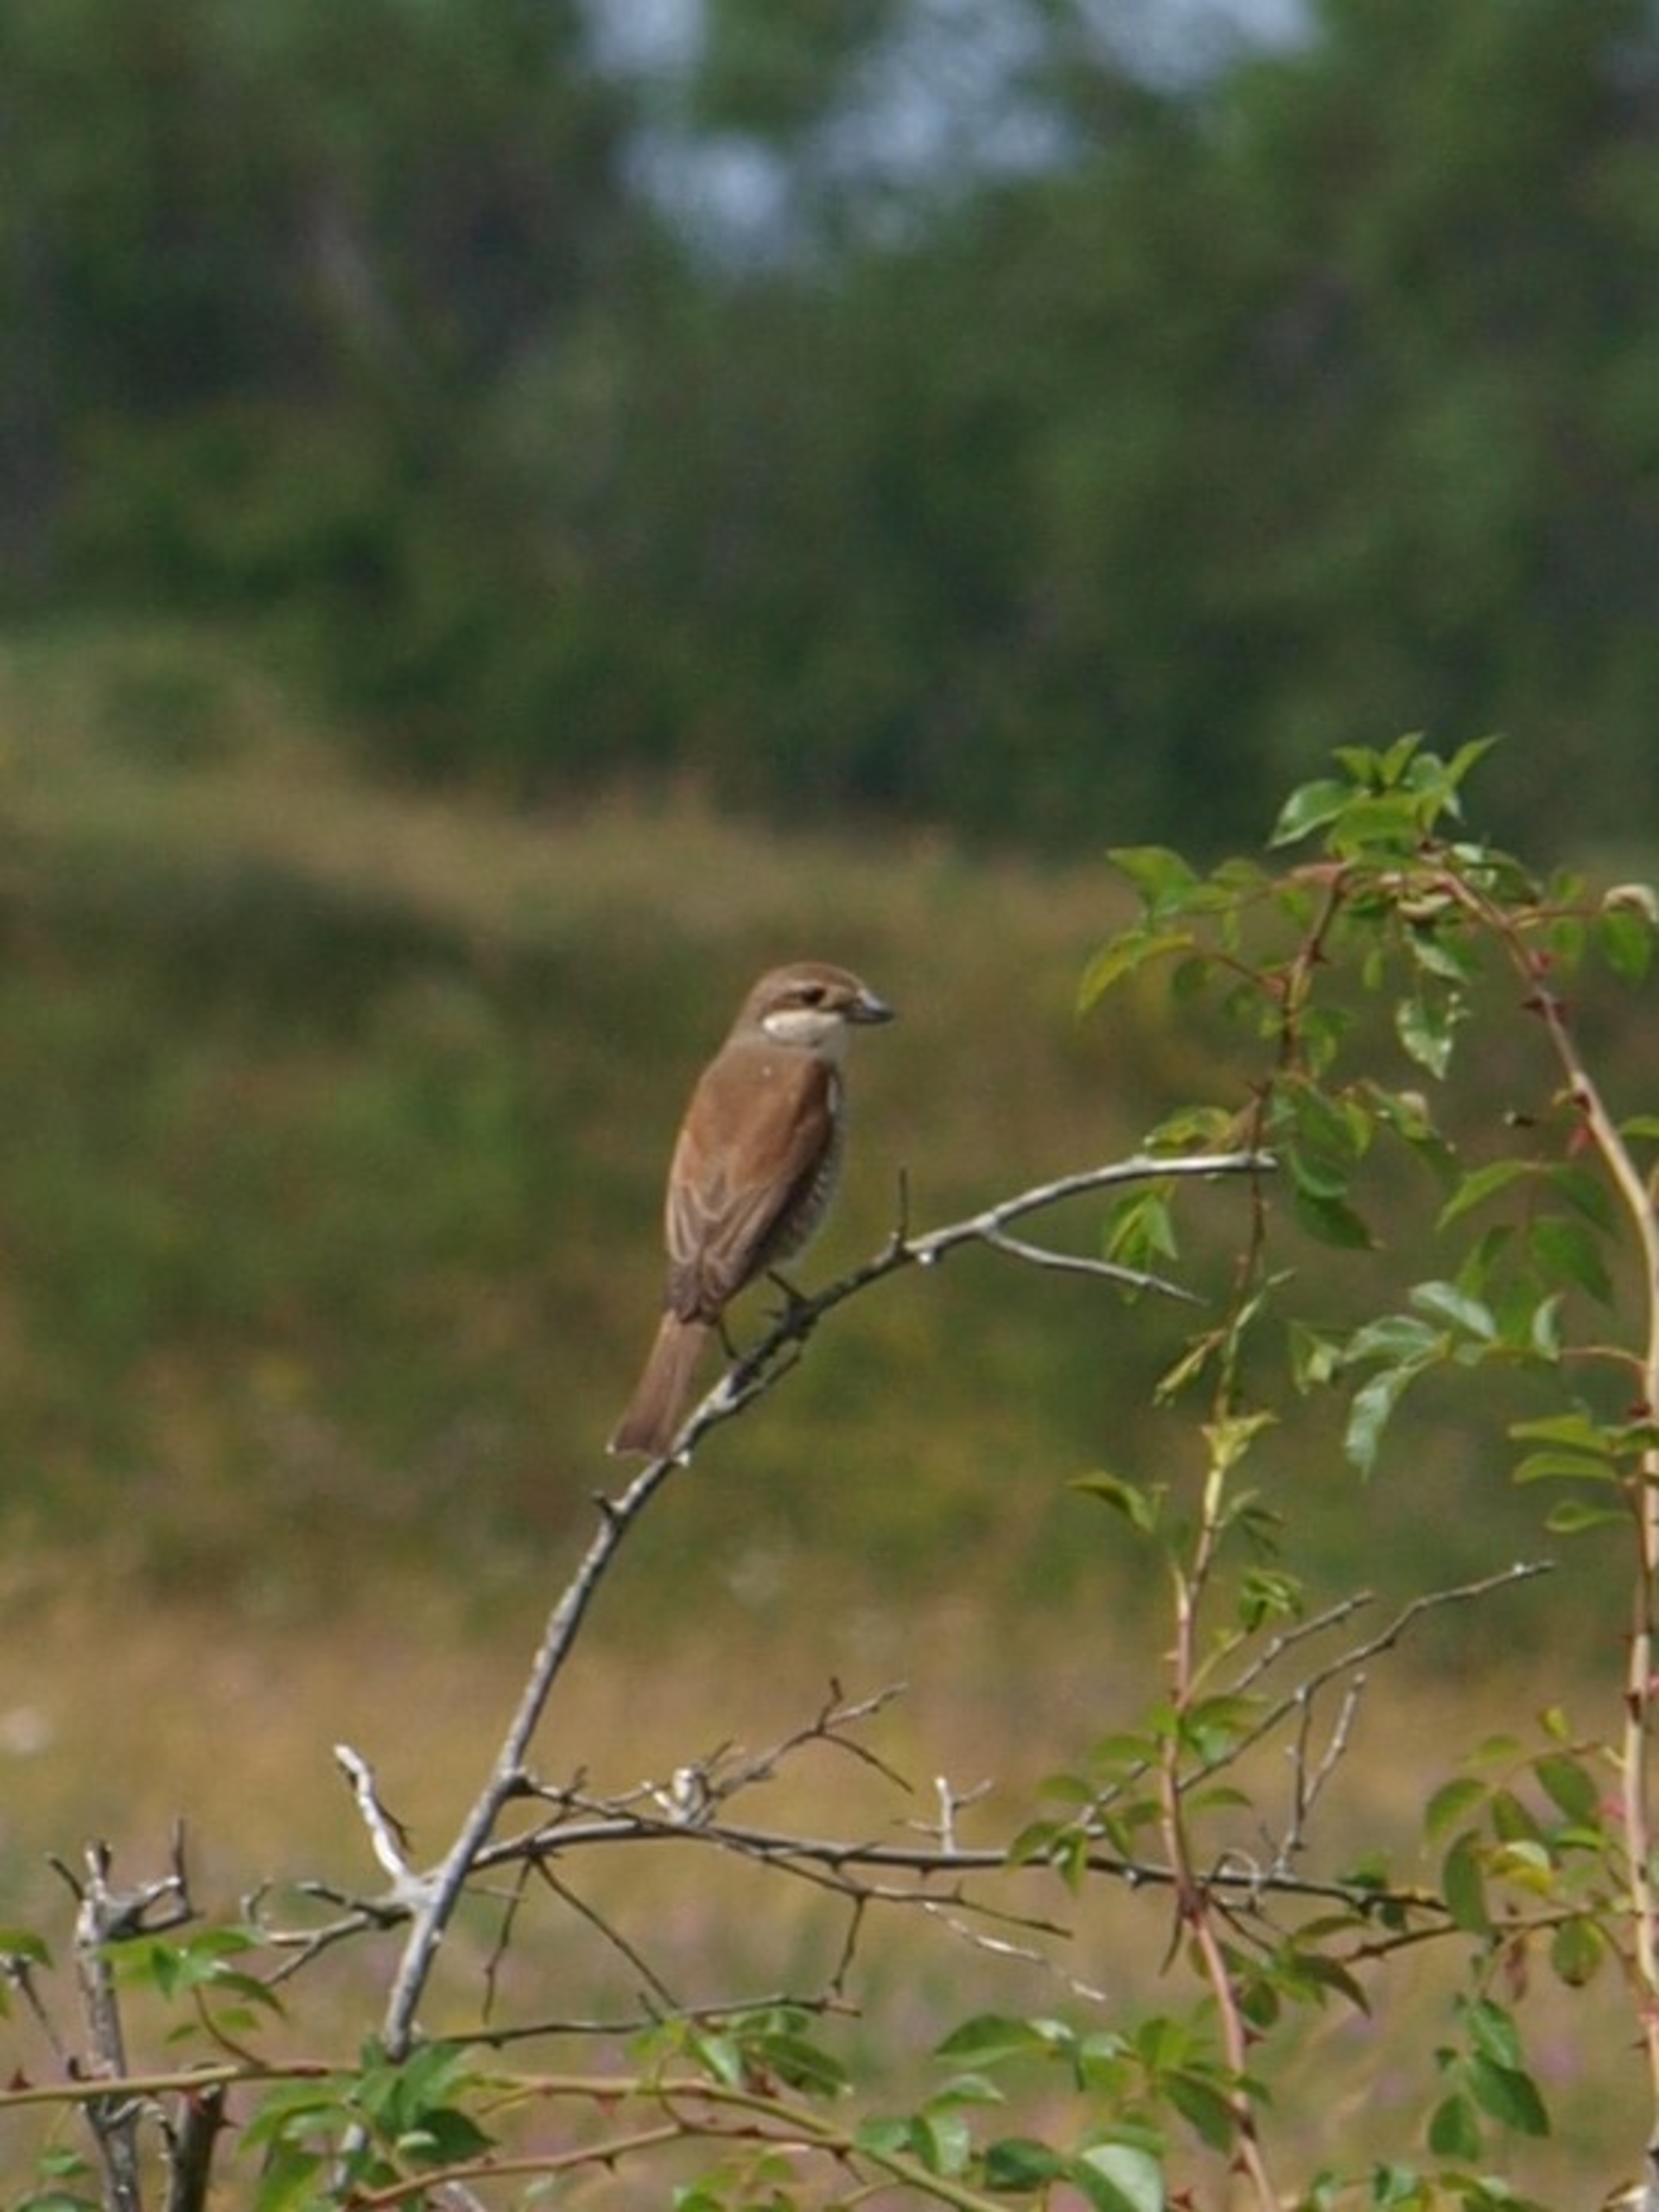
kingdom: Animalia
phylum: Chordata
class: Aves
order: Passeriformes
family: Laniidae
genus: Lanius
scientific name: Lanius collurio
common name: Rødrygget tornskade
